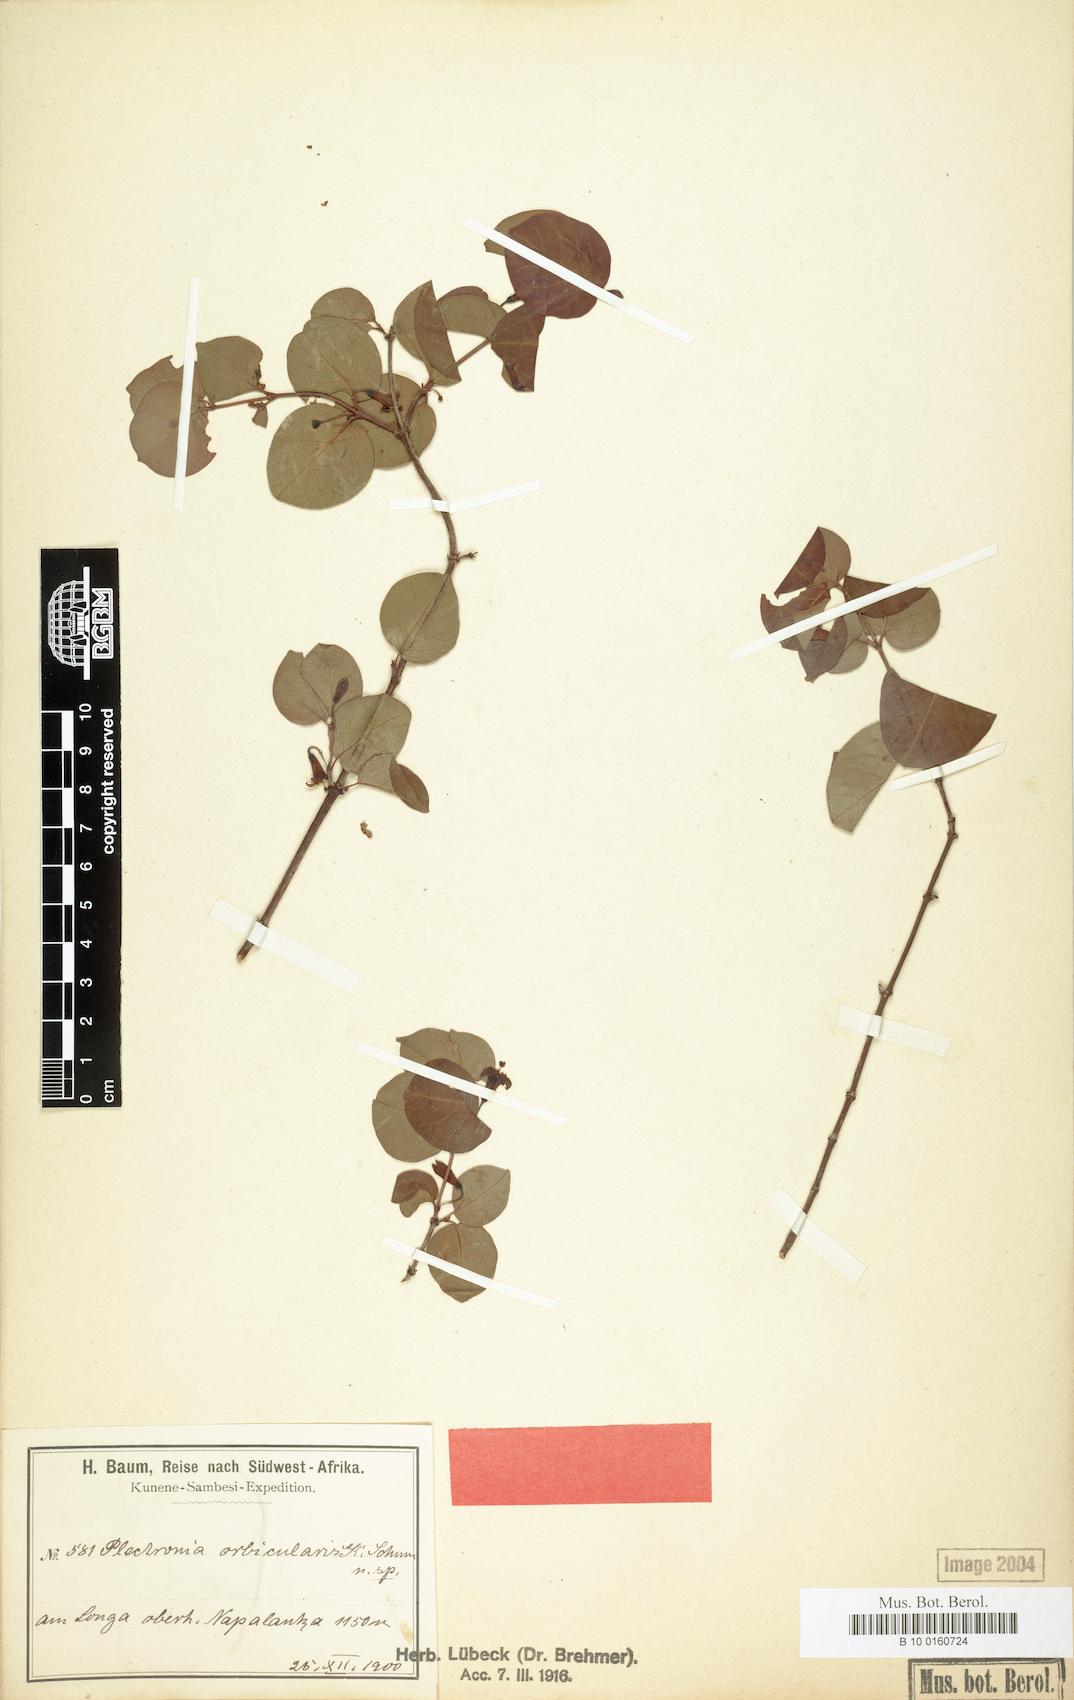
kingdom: Plantae
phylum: Tracheophyta
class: Magnoliopsida
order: Gentianales
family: Rubiaceae
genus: Rytigynia
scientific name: Rytigynia orbicularis
